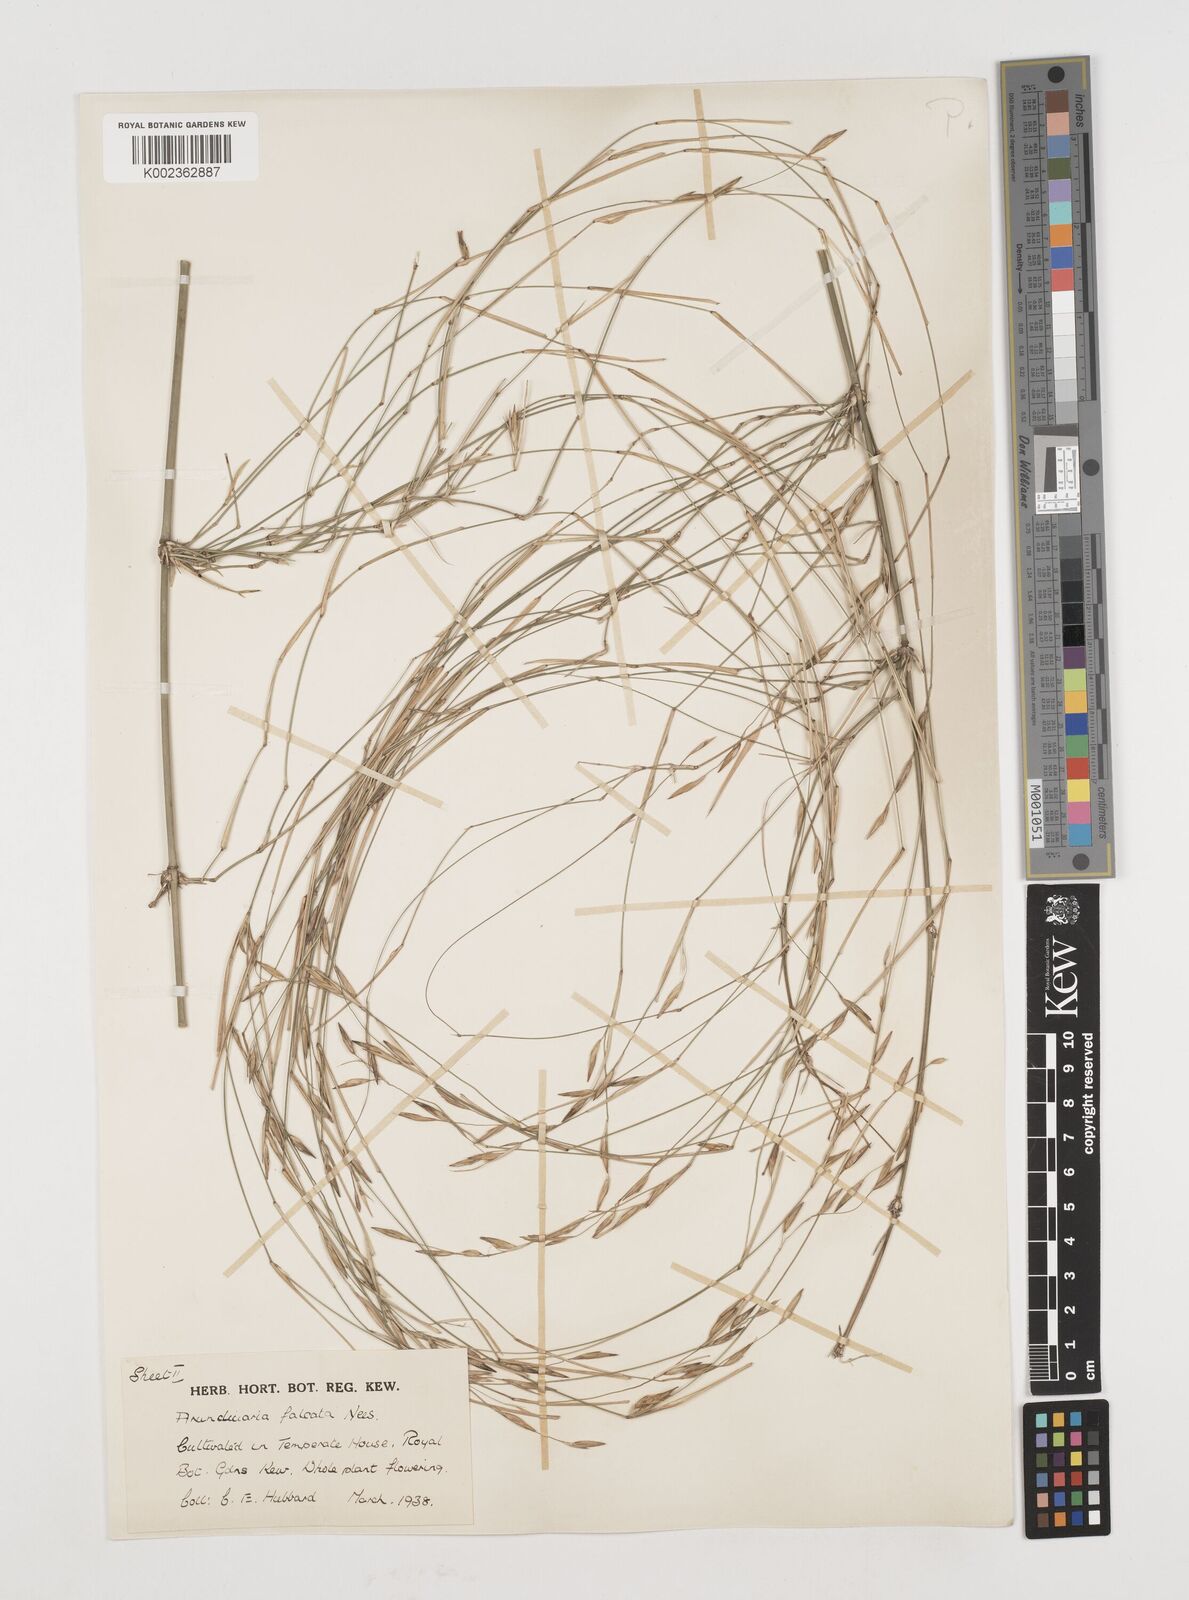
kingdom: Plantae
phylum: Tracheophyta
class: Liliopsida
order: Poales
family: Poaceae
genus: Drepanostachyum
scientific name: Drepanostachyum falcatum
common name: Himalayan bamboo
